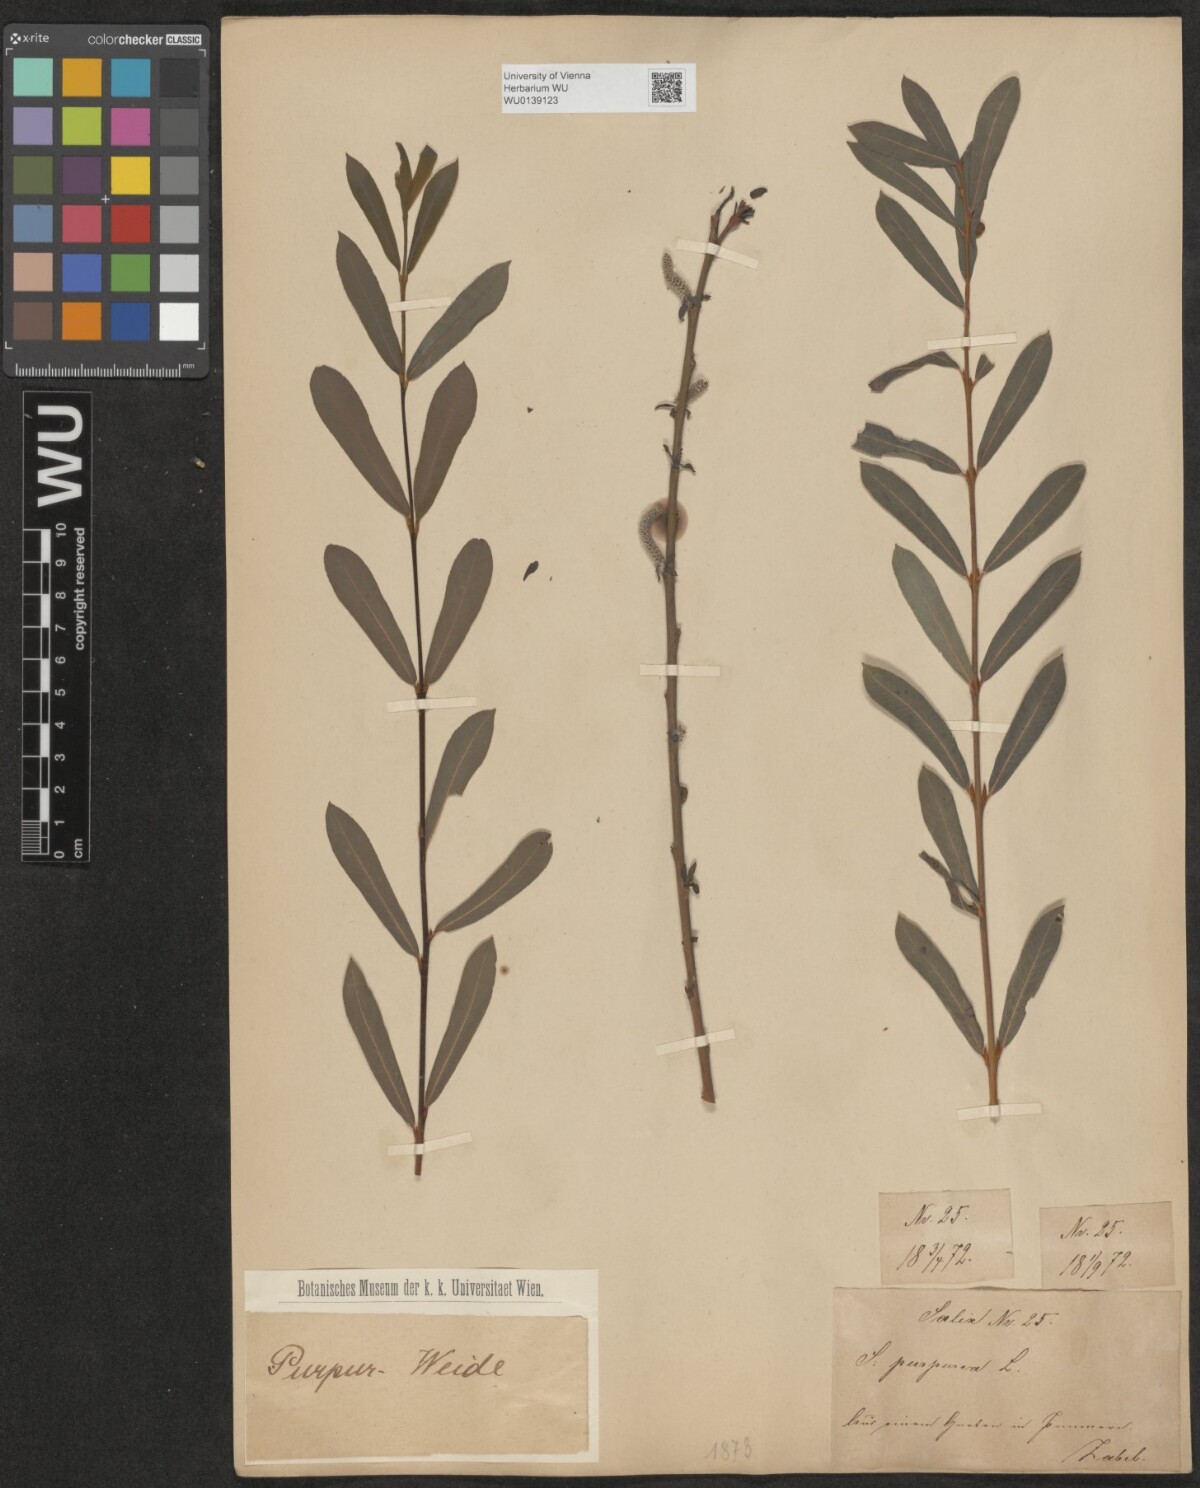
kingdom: Plantae
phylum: Tracheophyta
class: Magnoliopsida
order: Malpighiales
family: Salicaceae
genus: Salix
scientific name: Salix purpurea
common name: Purple willow
